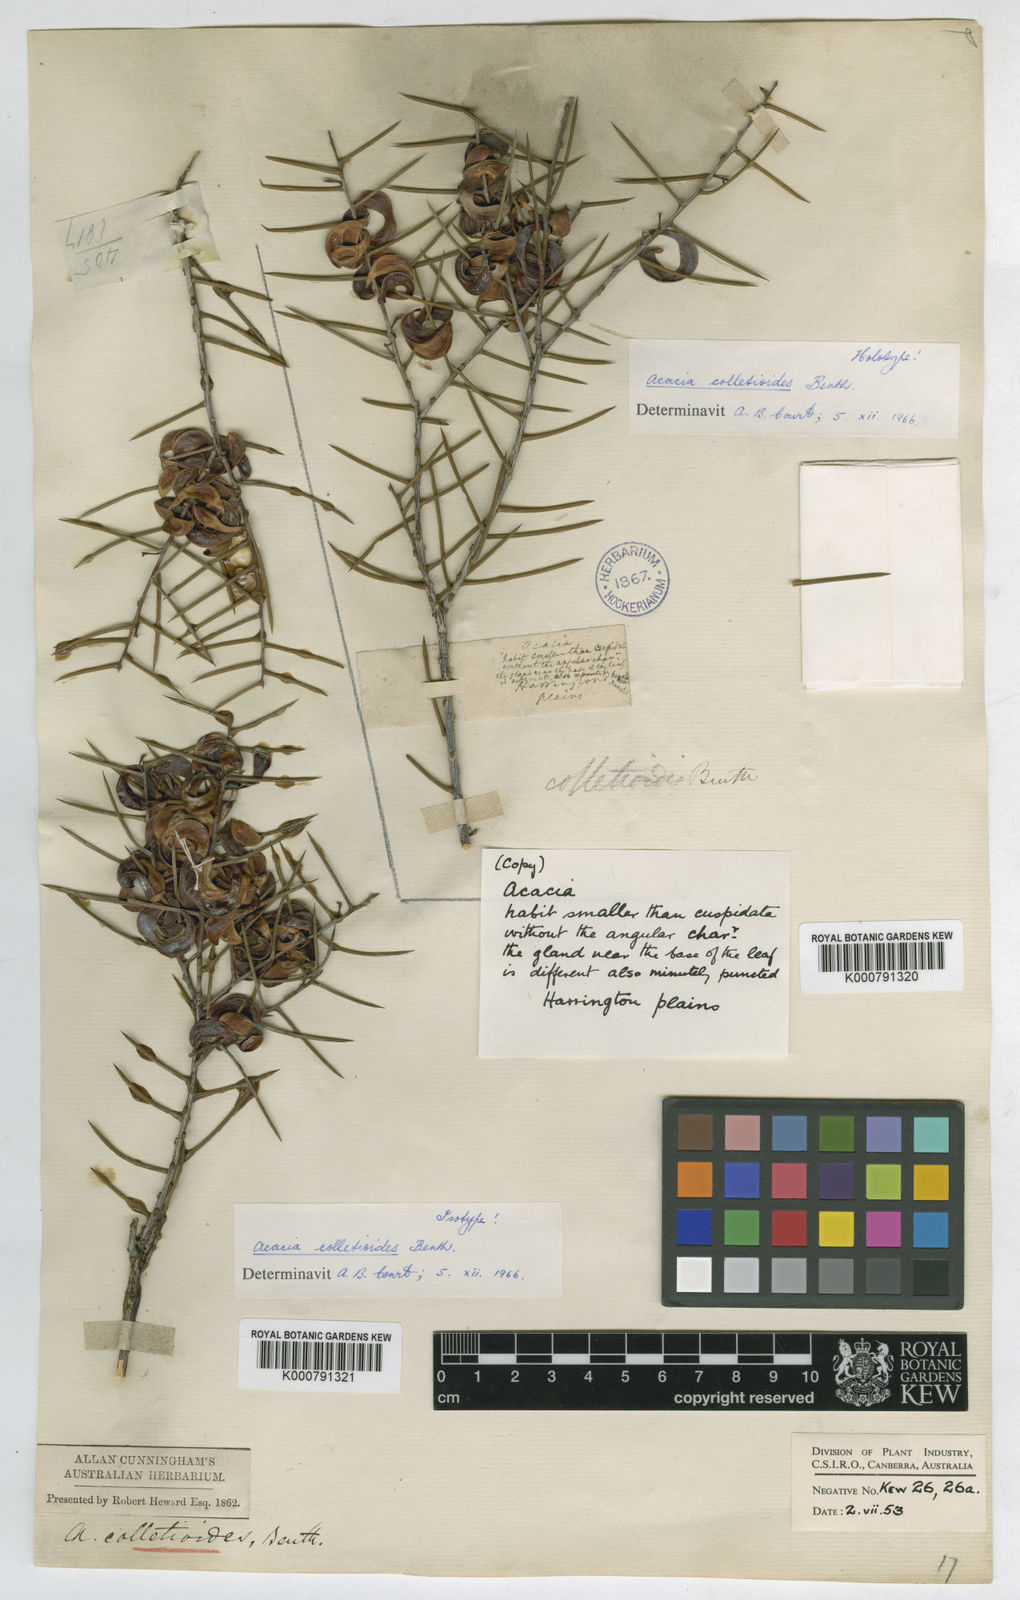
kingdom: Plantae
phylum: Tracheophyta
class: Magnoliopsida
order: Fabales
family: Fabaceae
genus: Acacia
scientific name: Acacia colletioides
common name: Spinebush
